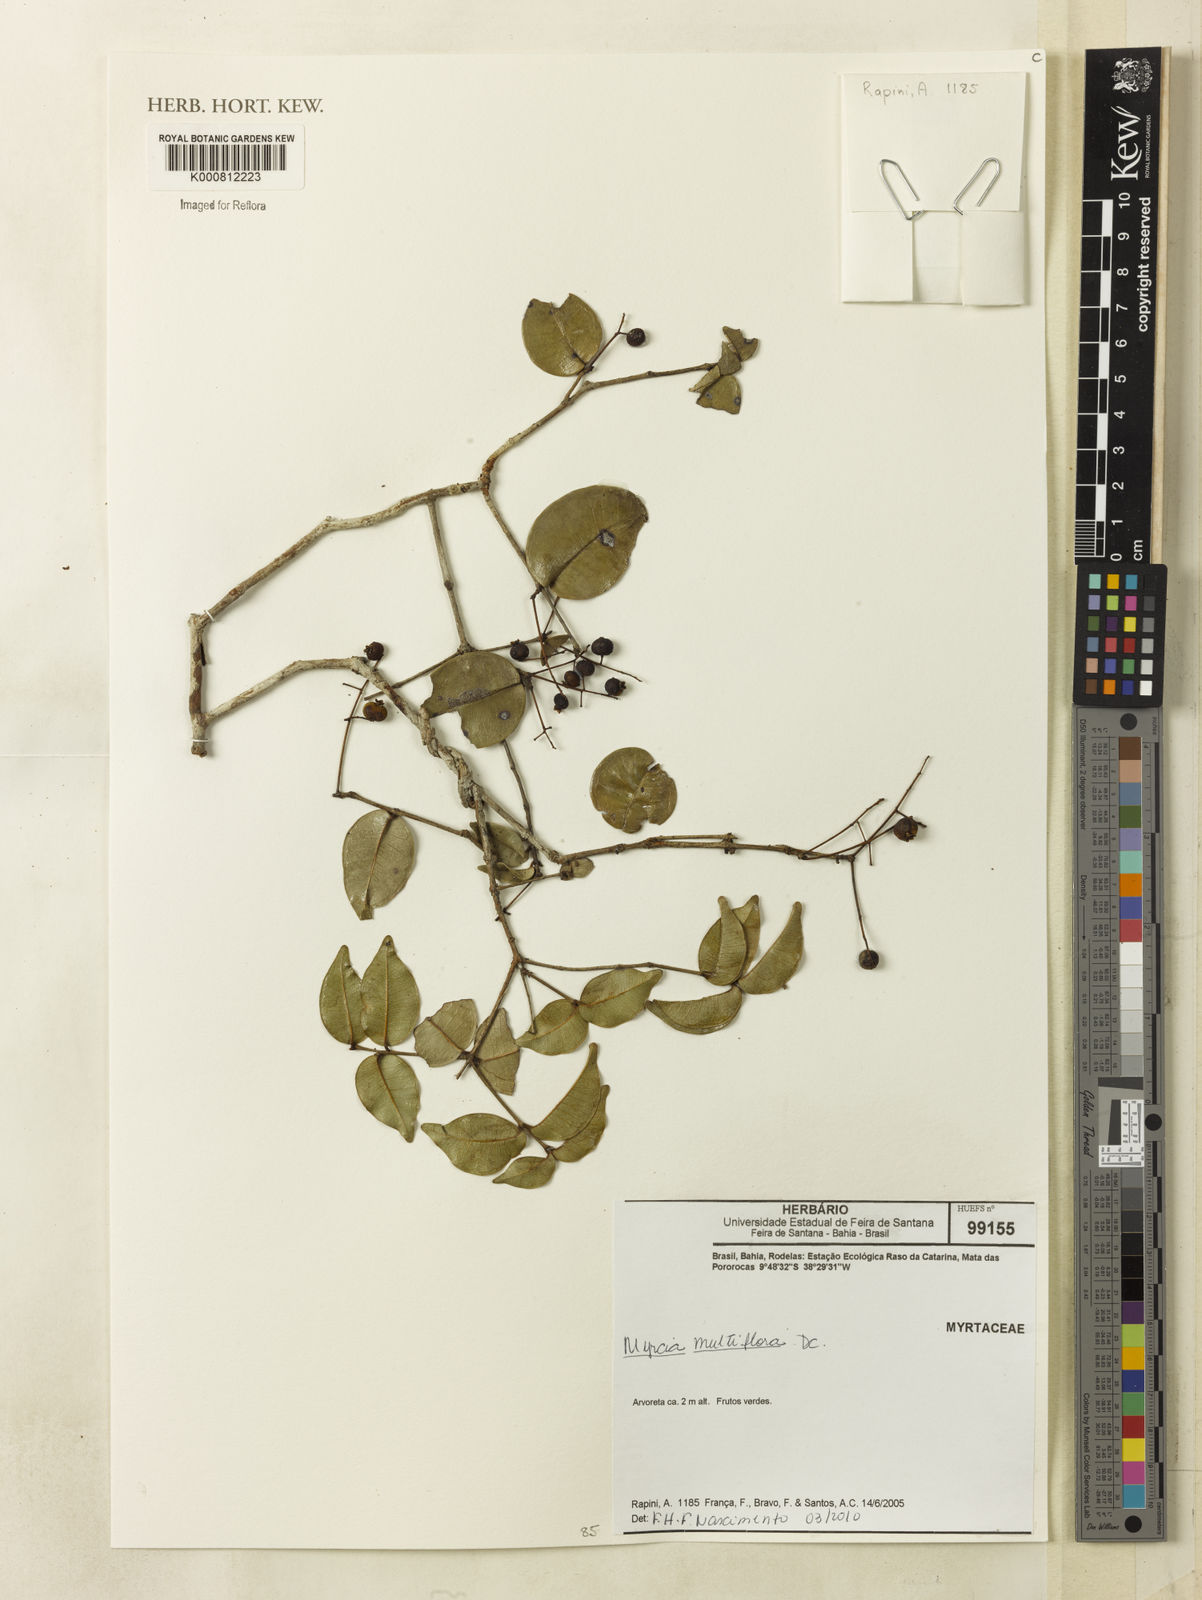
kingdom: Plantae
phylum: Tracheophyta
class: Magnoliopsida
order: Myrtales
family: Myrtaceae
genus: Myrcia
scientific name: Myrcia multiflora
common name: Pedra hume
